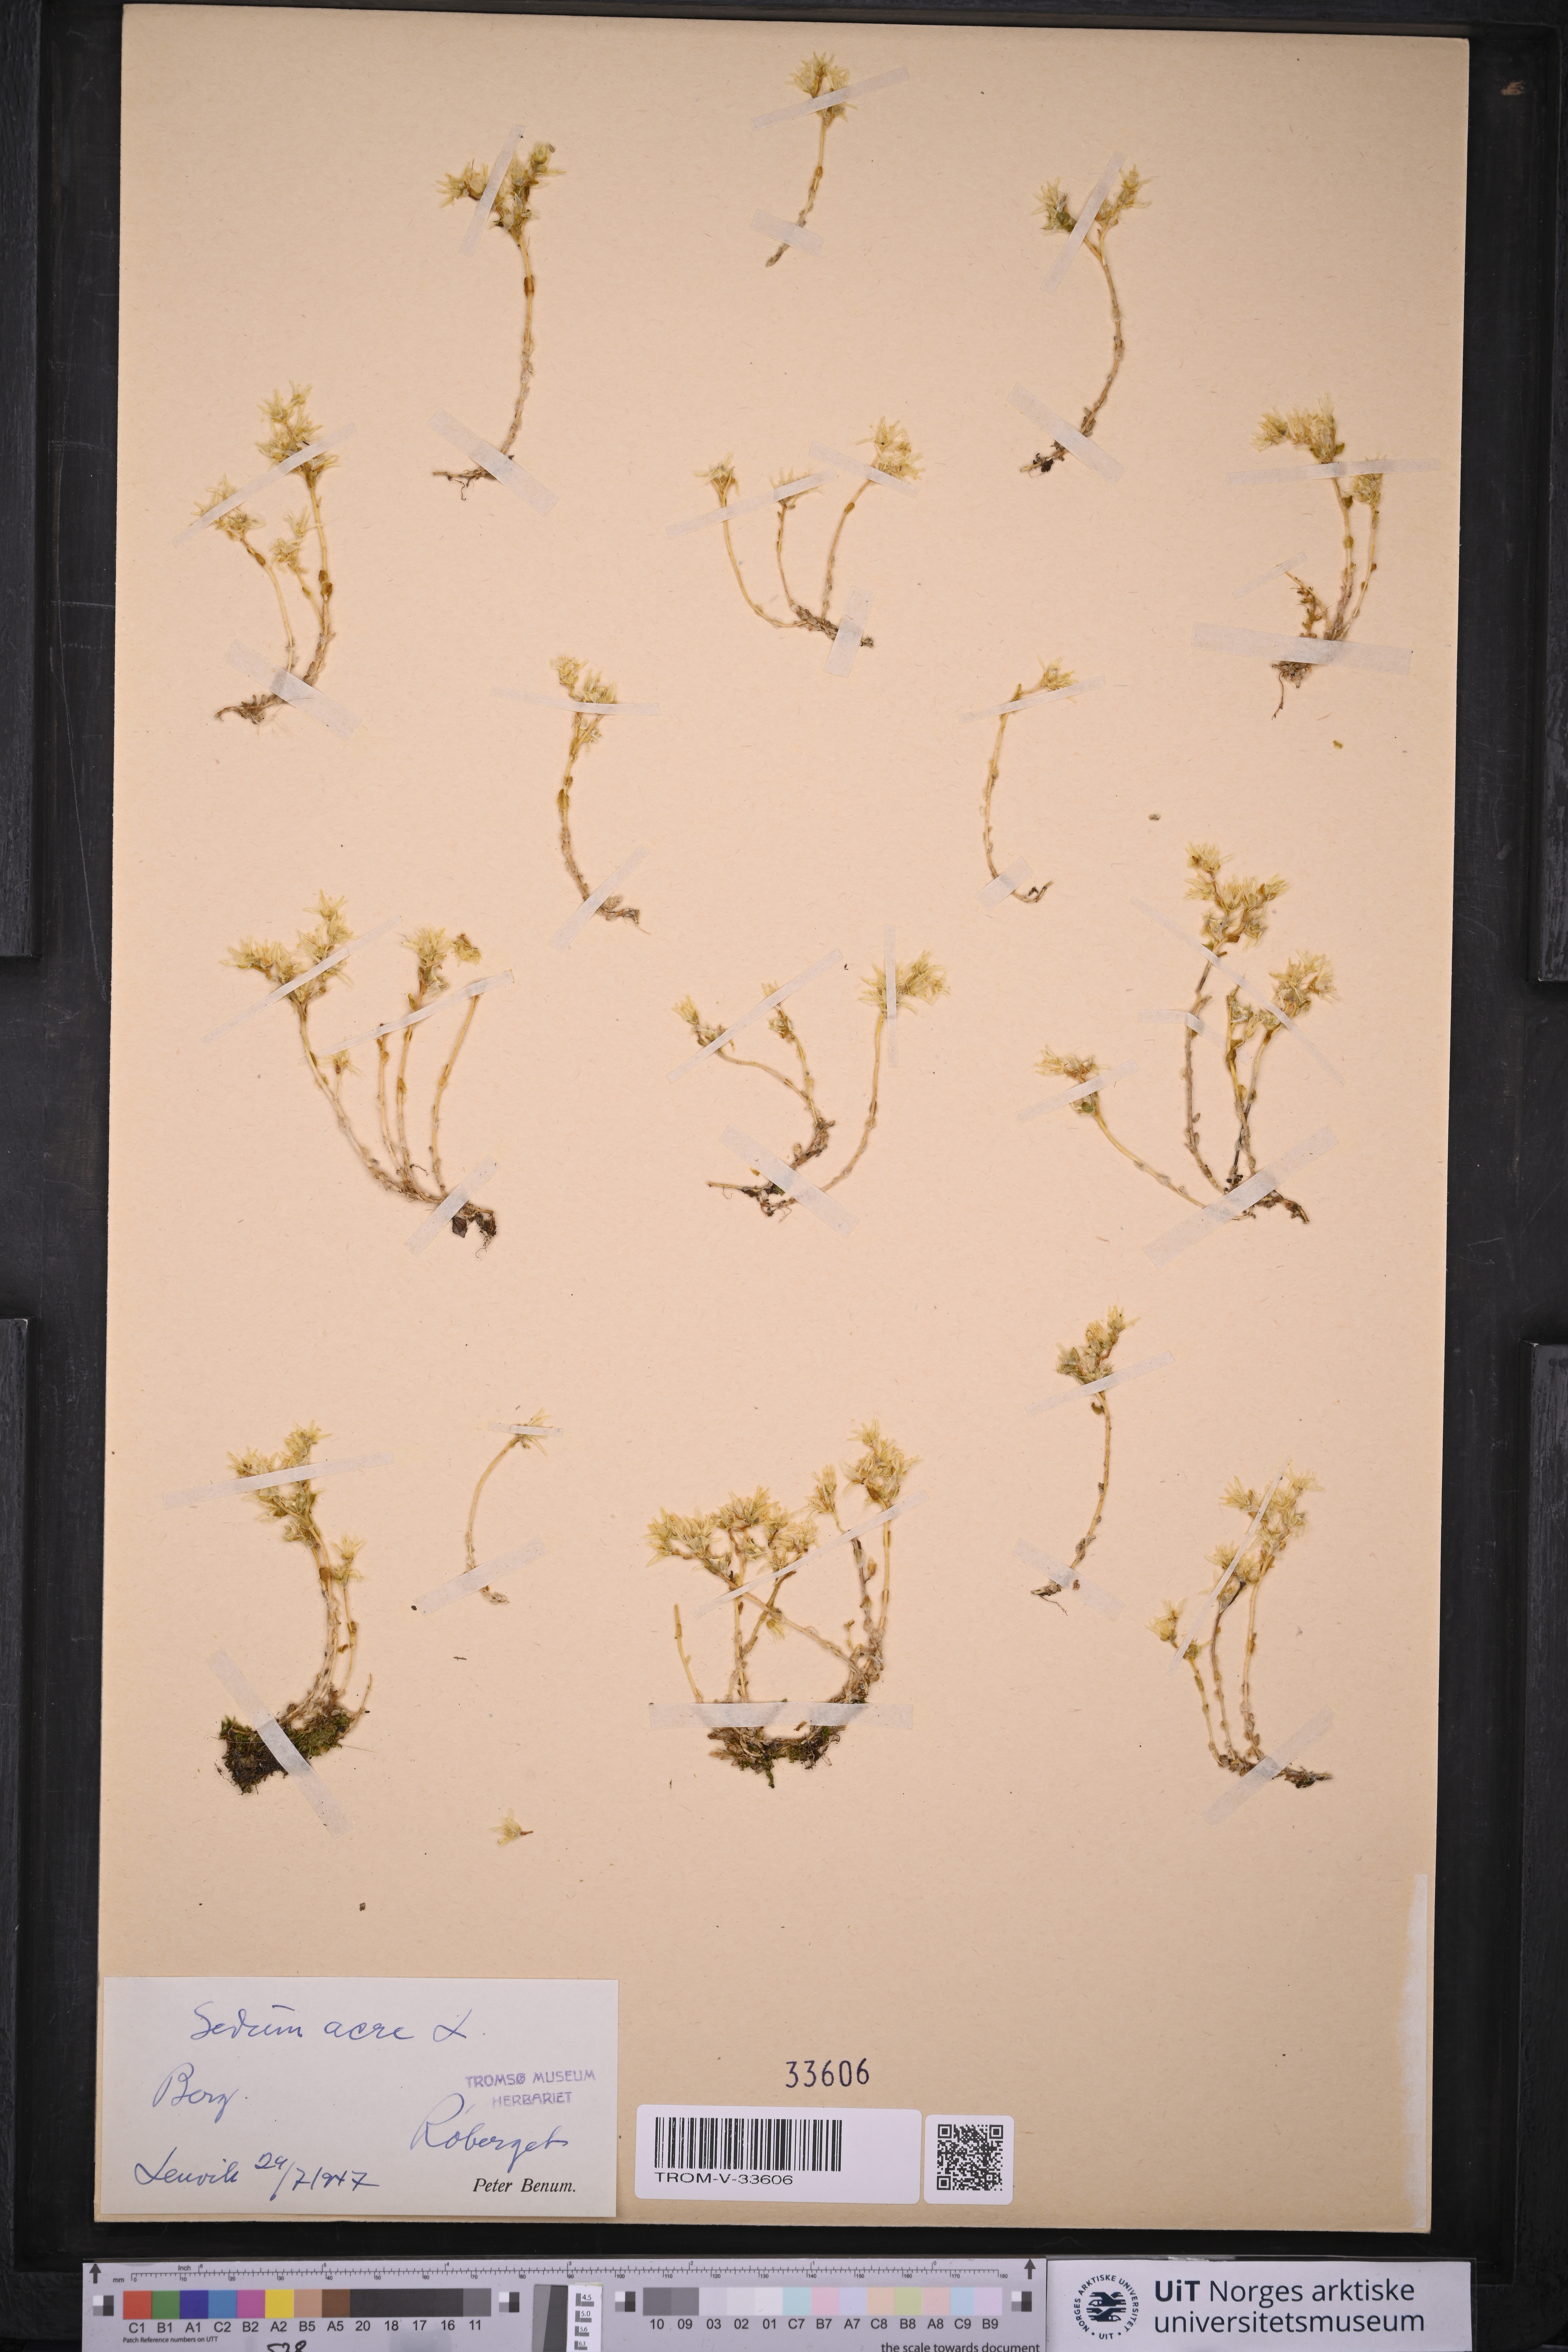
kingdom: Plantae
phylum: Tracheophyta
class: Magnoliopsida
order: Saxifragales
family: Crassulaceae
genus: Sedum
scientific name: Sedum acre
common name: Biting stonecrop
